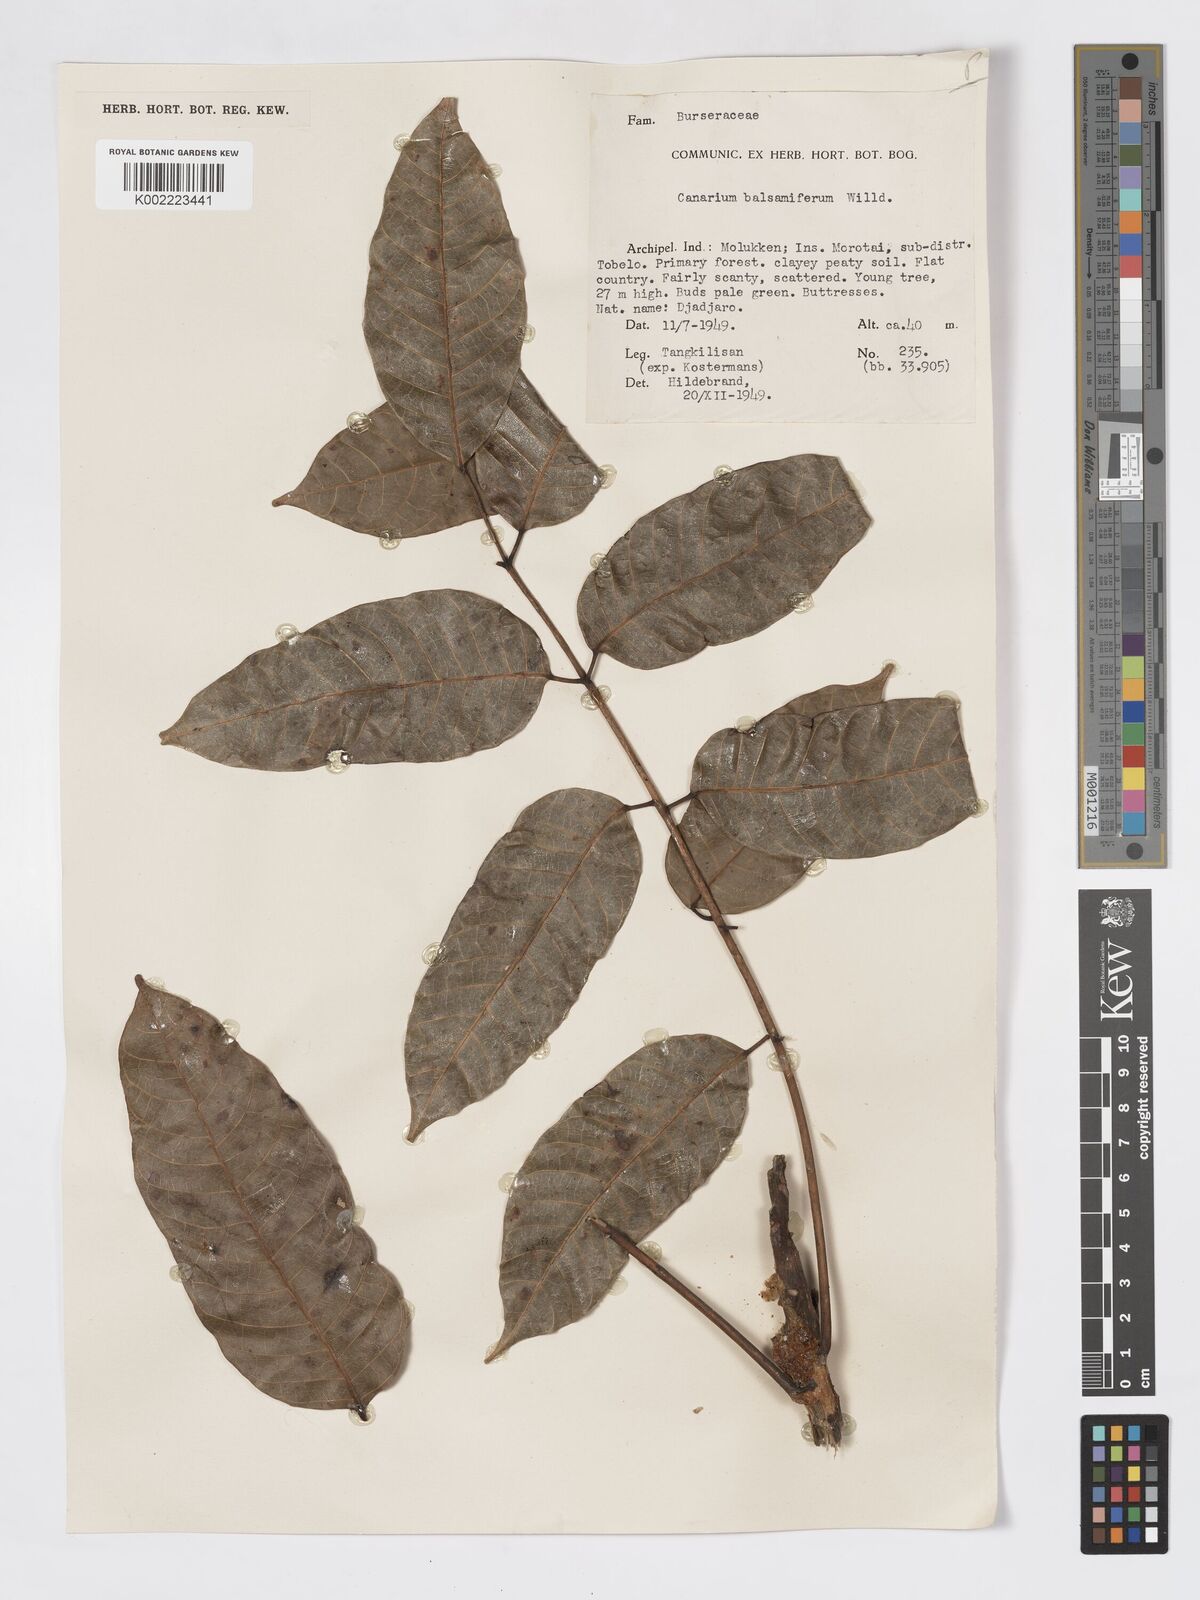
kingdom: Plantae
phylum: Tracheophyta
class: Magnoliopsida
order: Sapindales
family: Burseraceae
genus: Canarium
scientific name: Canarium
